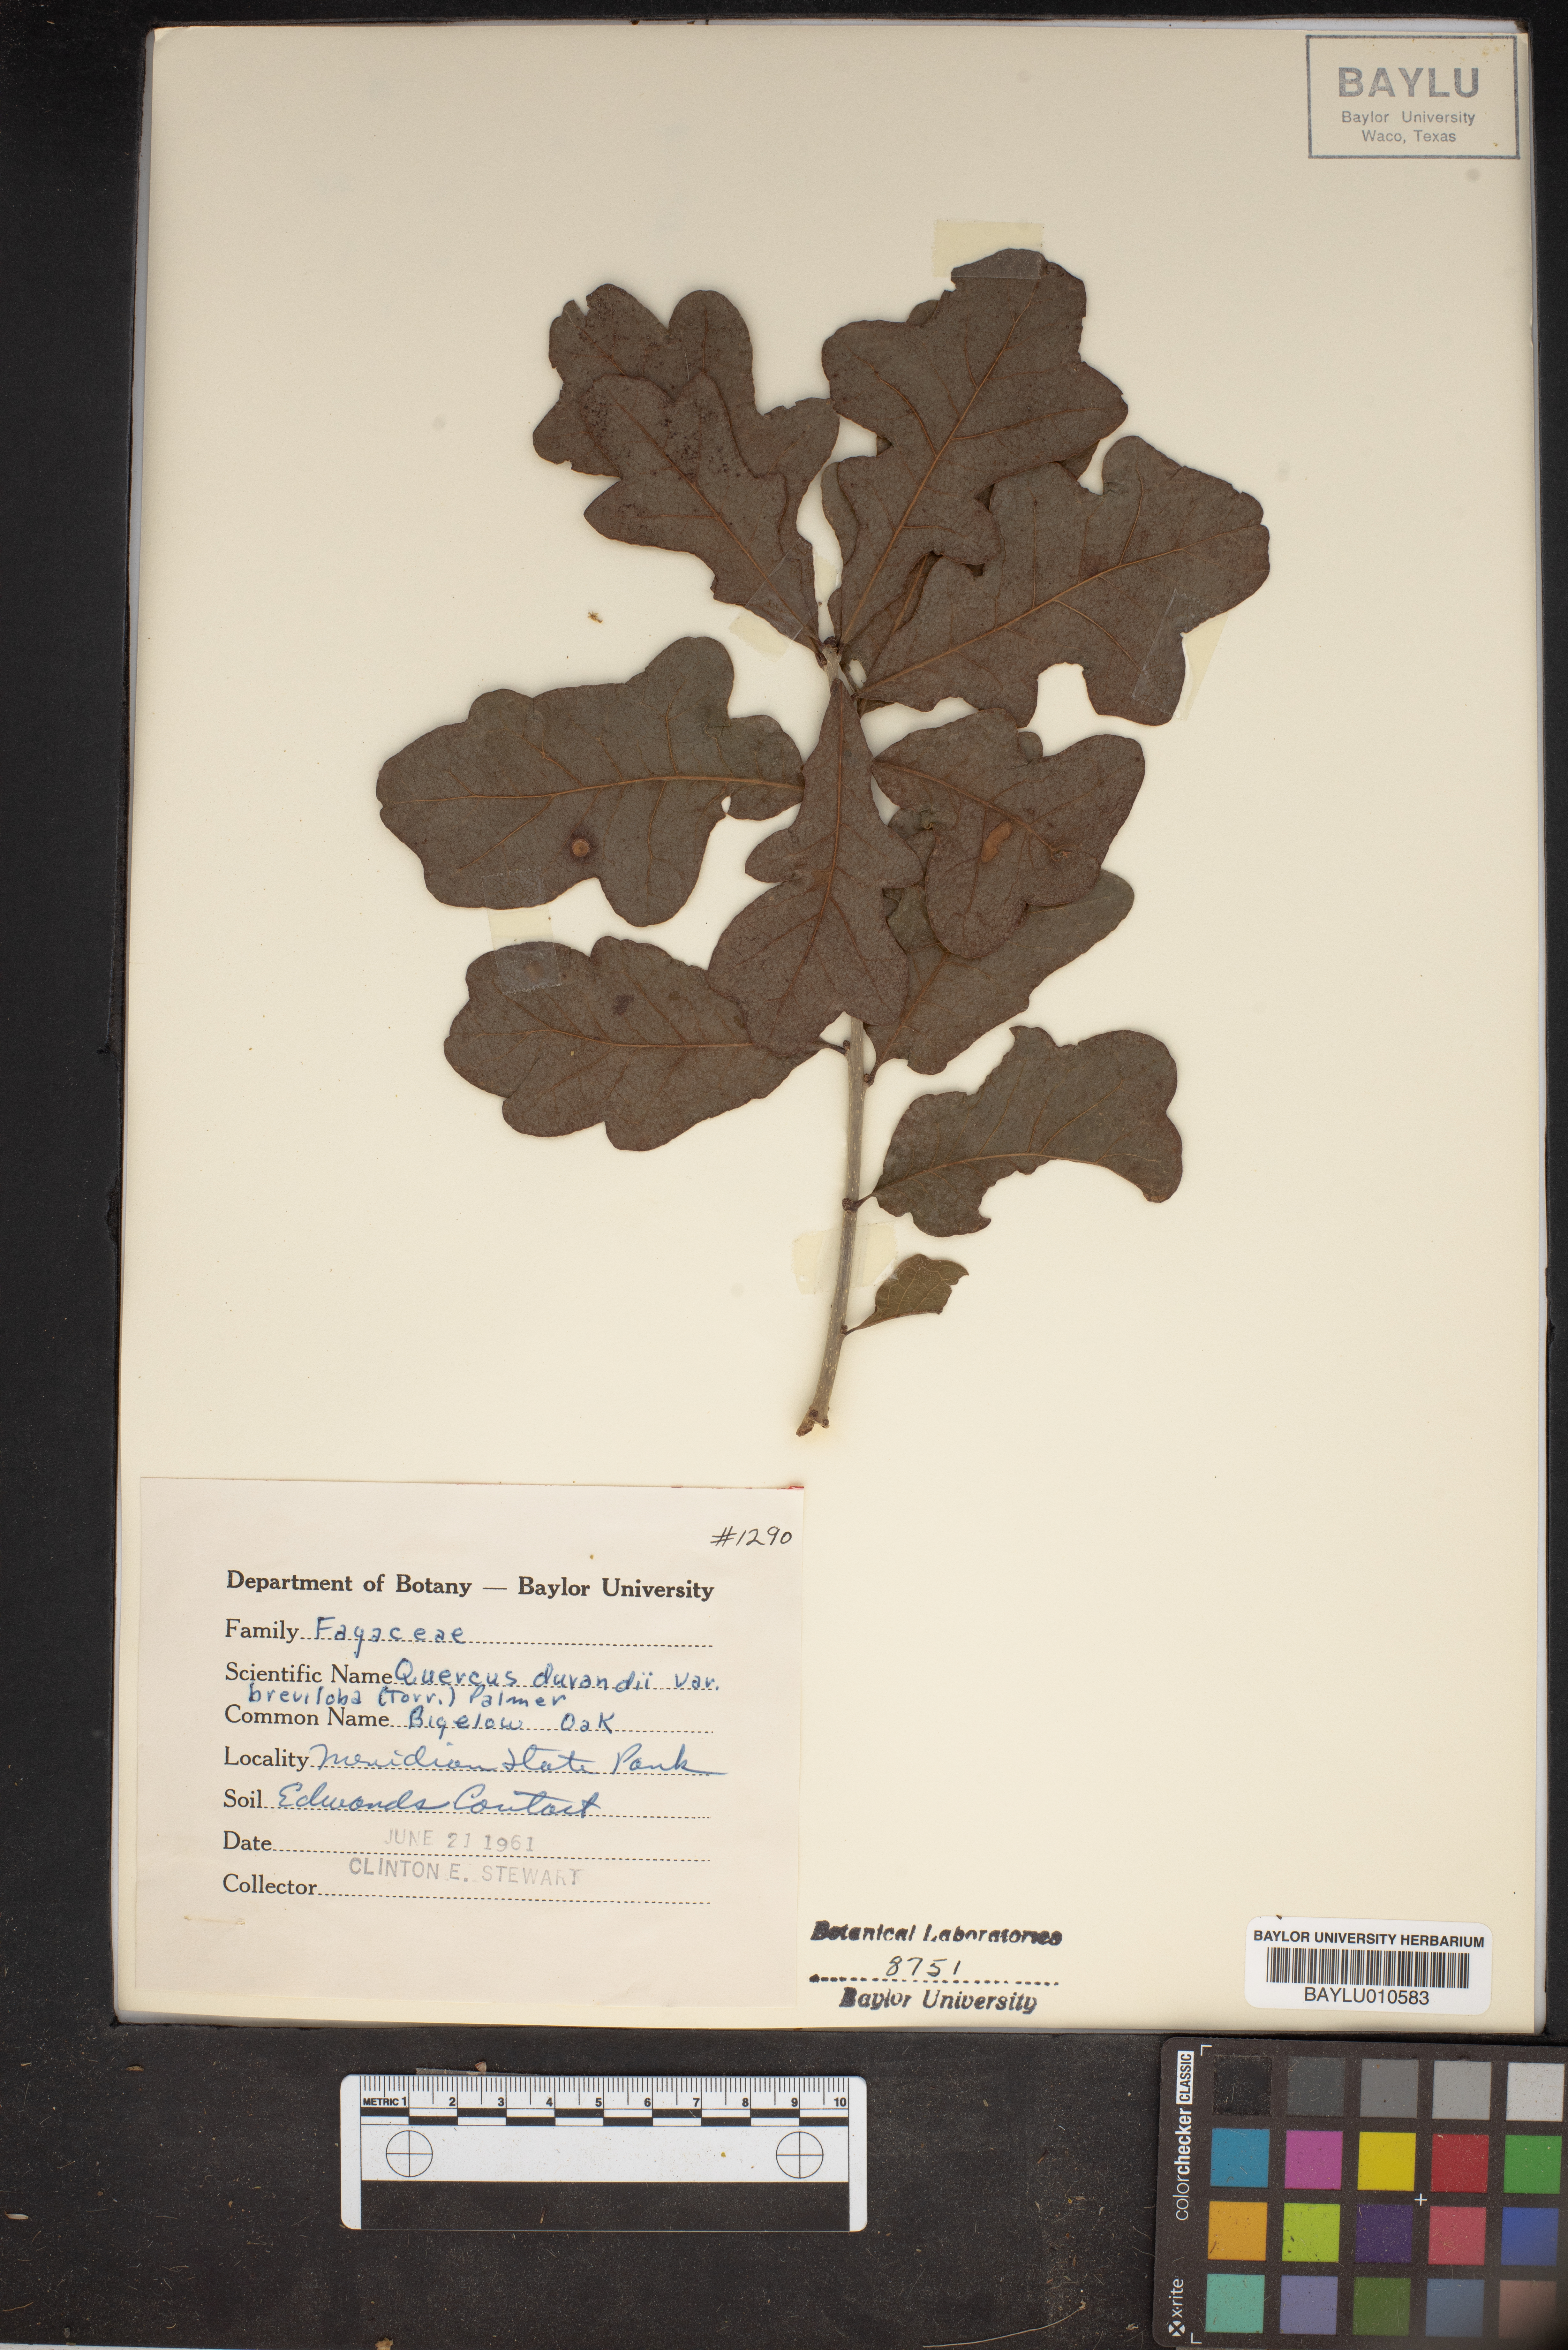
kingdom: Plantae
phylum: Tracheophyta
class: Magnoliopsida
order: Fagales
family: Fagaceae
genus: Quercus
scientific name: Quercus sinuata
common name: Durand oak
